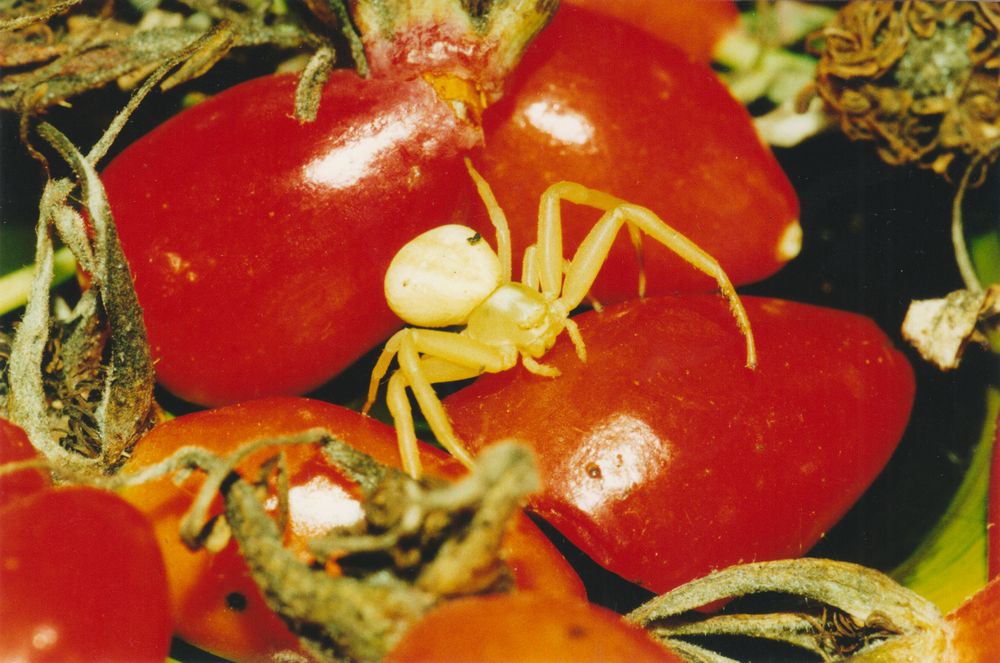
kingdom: Animalia
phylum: Arthropoda
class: Arachnida
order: Araneae
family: Thomisidae
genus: Misumena
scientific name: Misumena vatia
